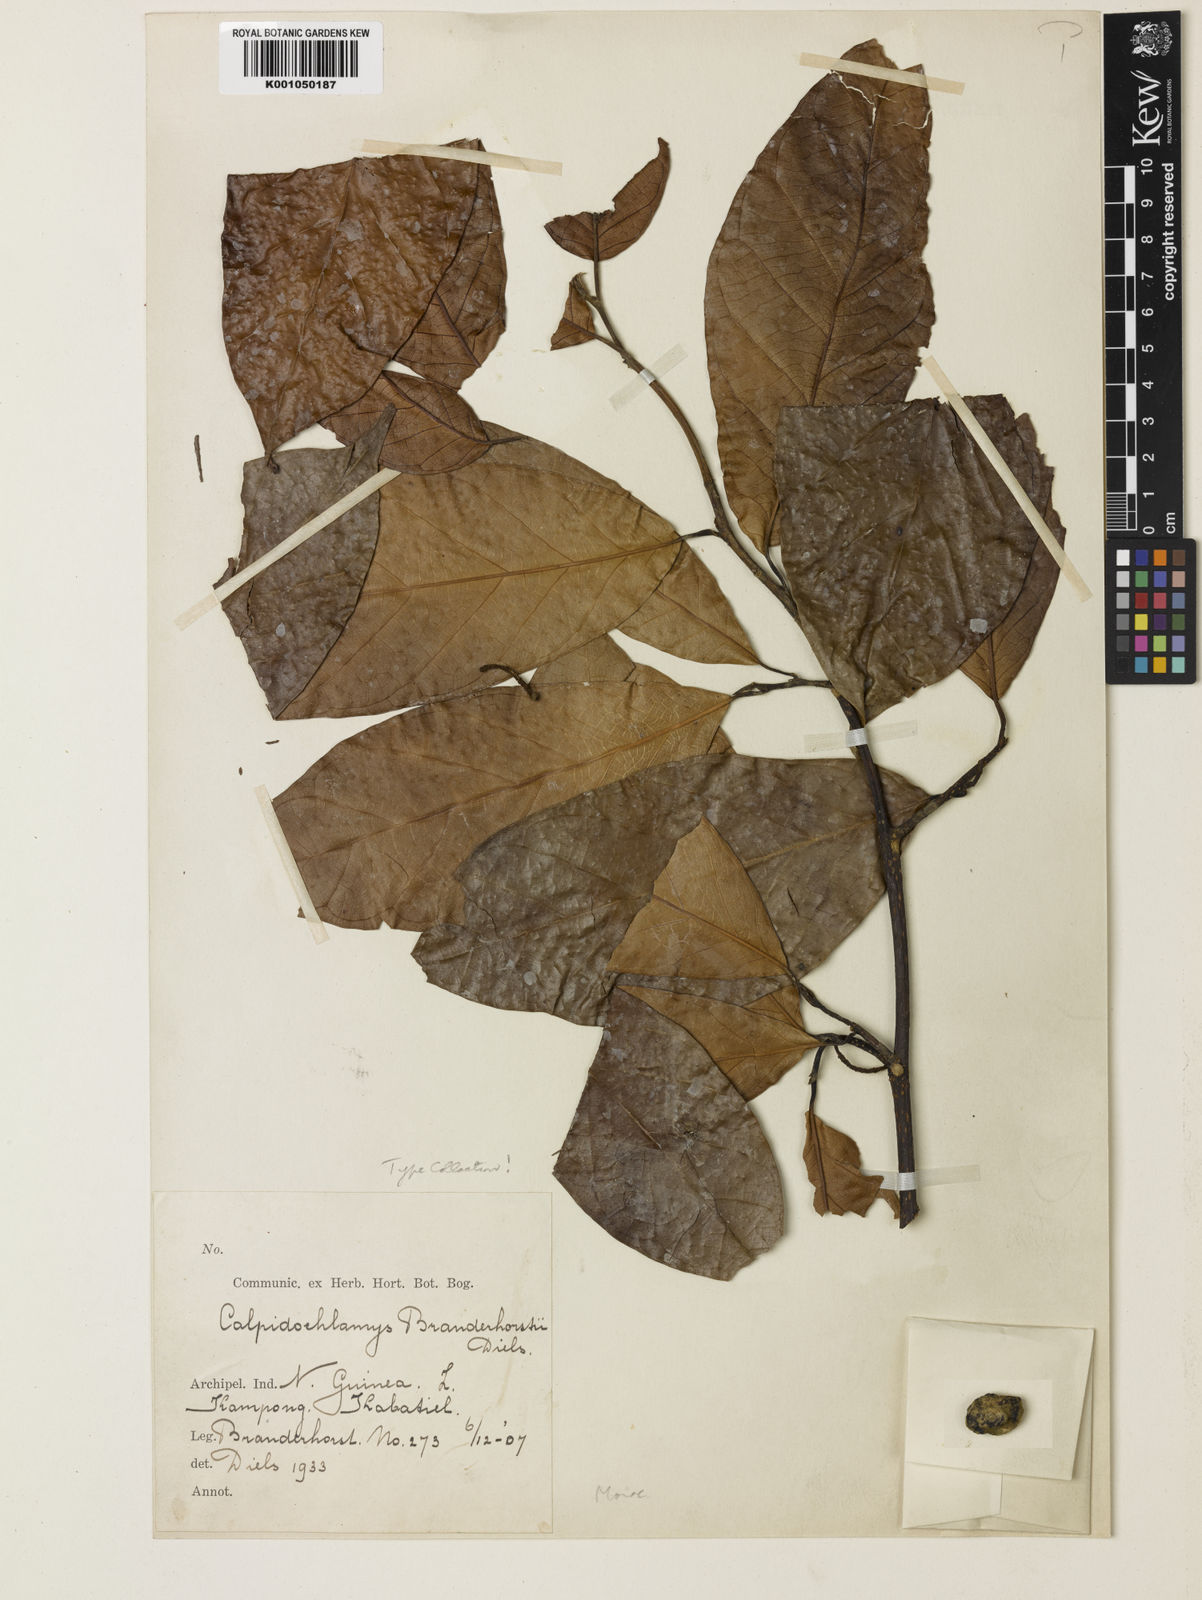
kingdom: Plantae
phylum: Tracheophyta
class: Magnoliopsida
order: Rosales
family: Moraceae
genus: Paratrophis
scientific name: Paratrophis philippinensis
